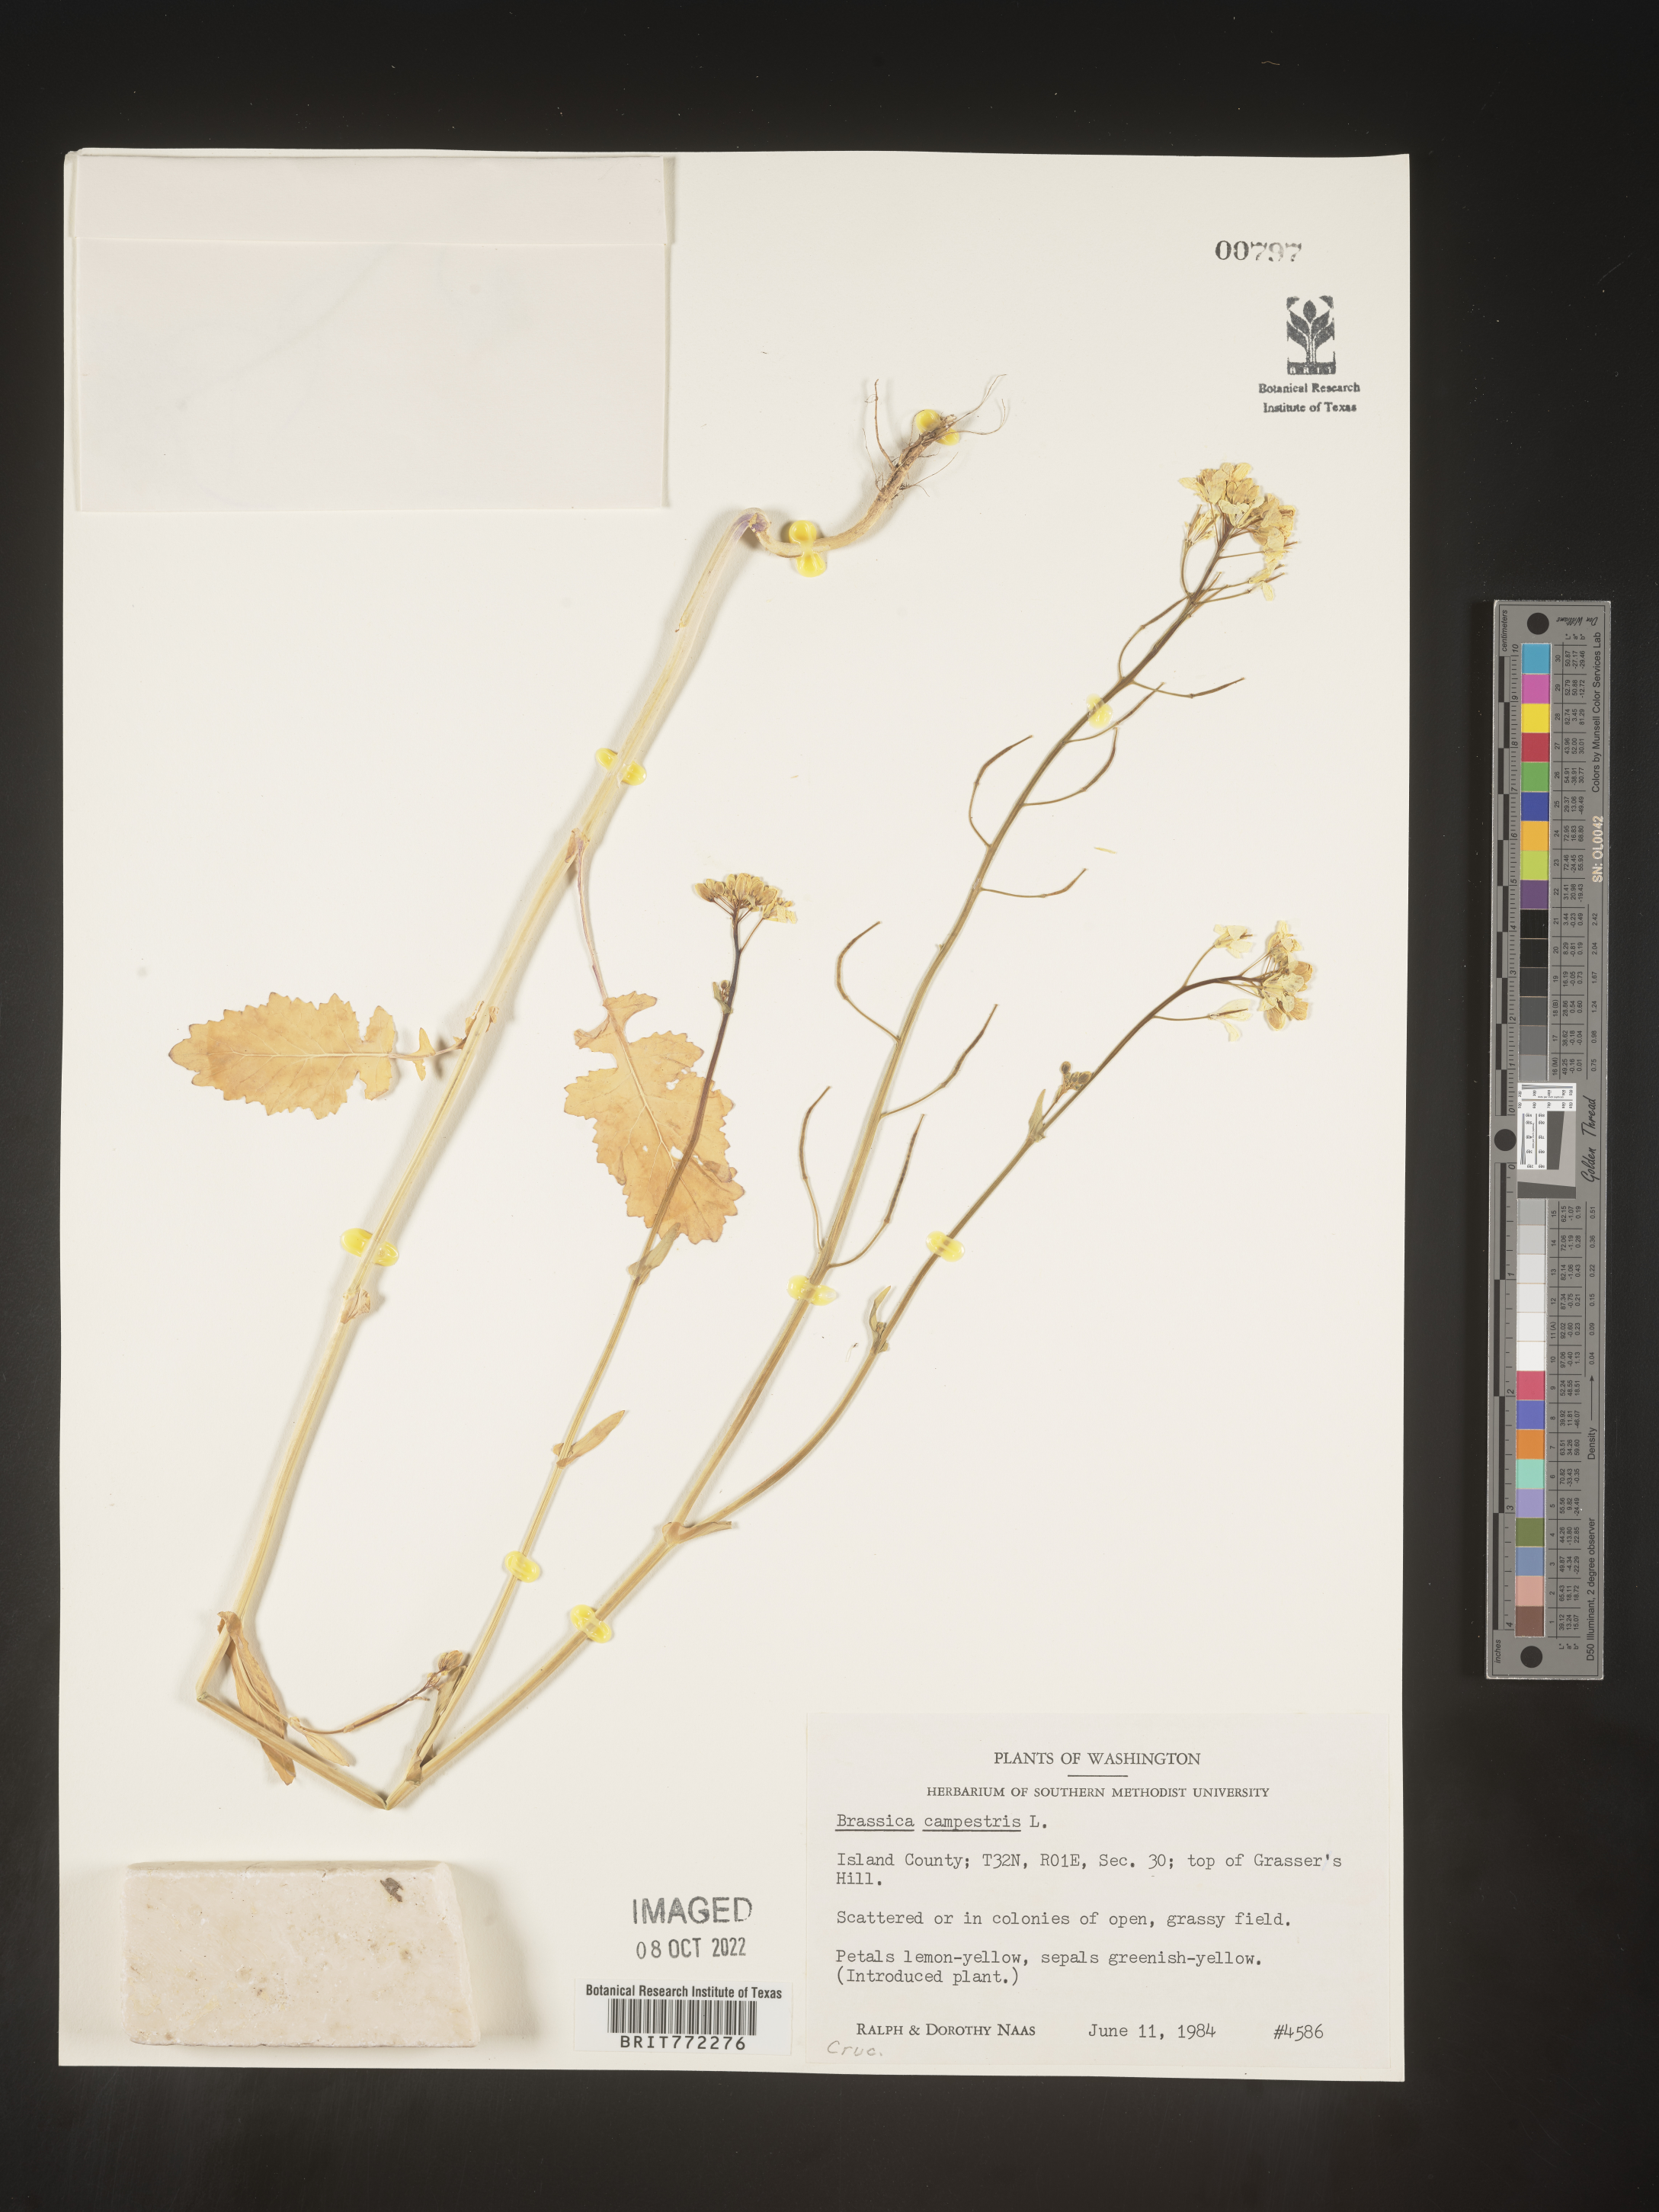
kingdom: Plantae
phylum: Tracheophyta
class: Magnoliopsida
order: Brassicales
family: Brassicaceae
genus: Brassica
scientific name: Brassica
